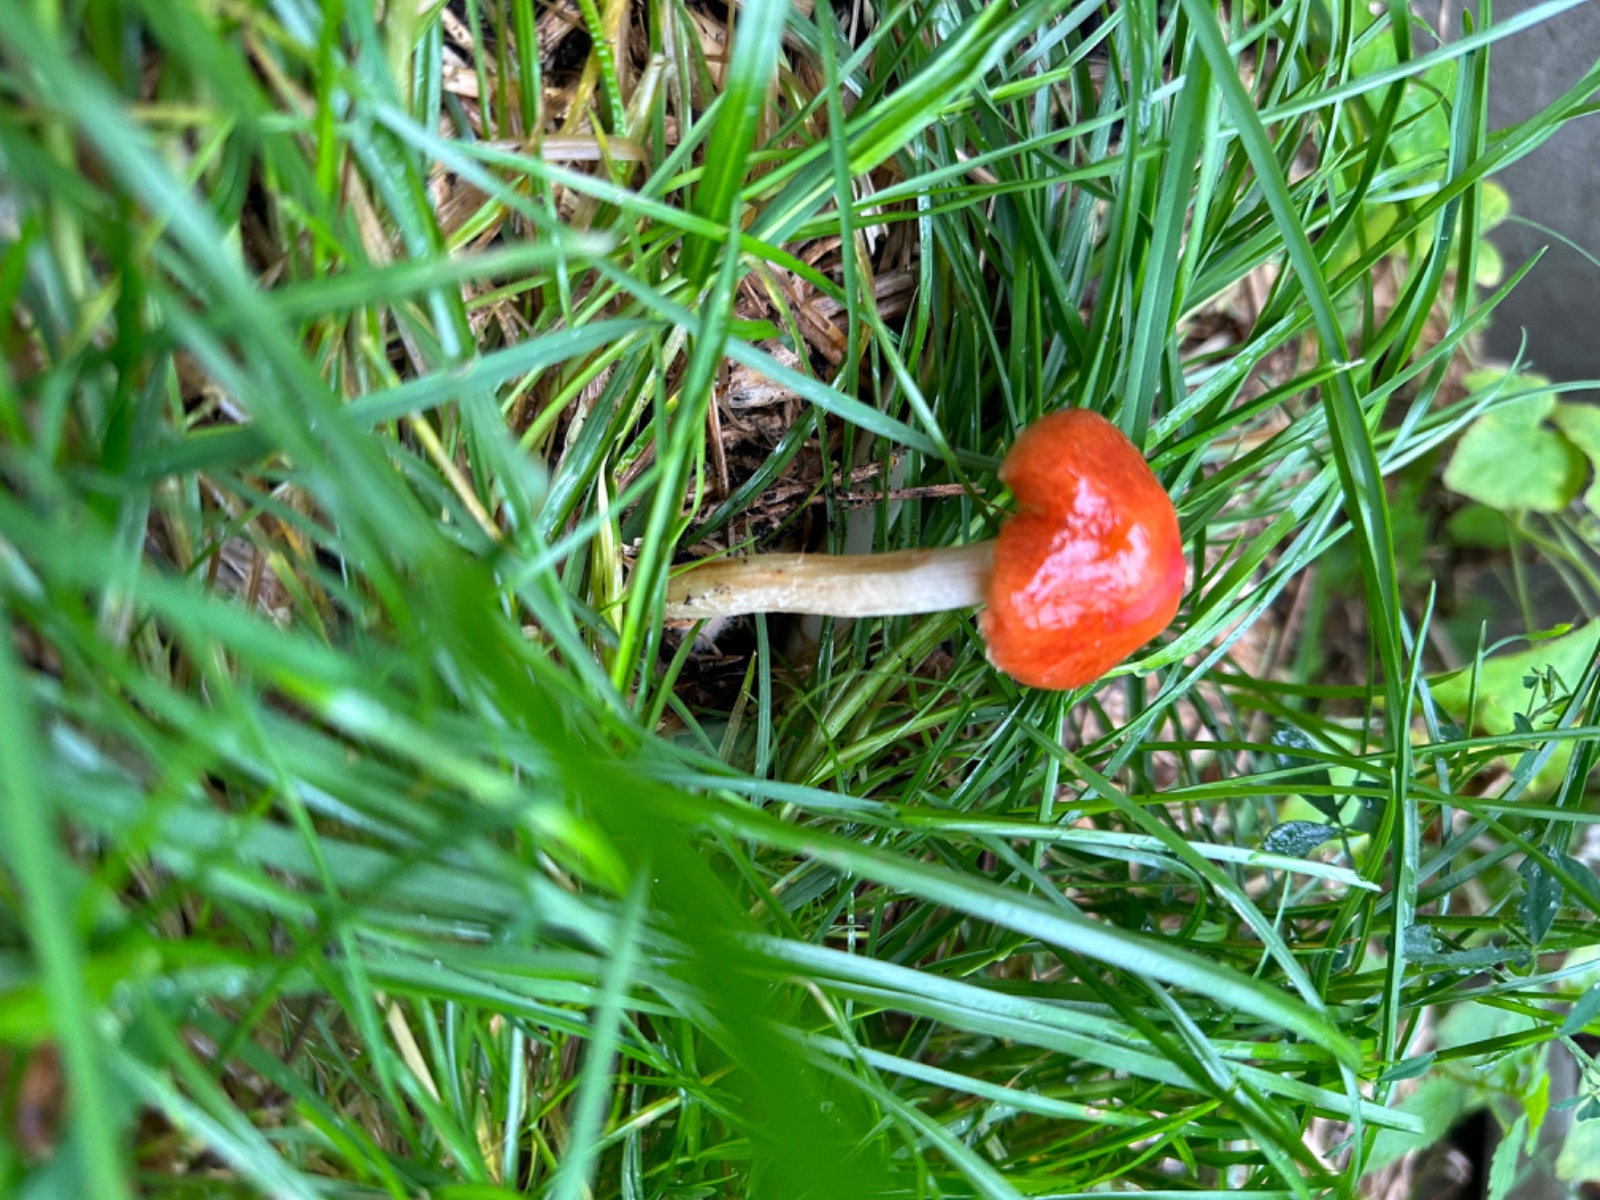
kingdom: Fungi
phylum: Basidiomycota
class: Agaricomycetes
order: Agaricales
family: Strophariaceae
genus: Leratiomyces
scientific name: Leratiomyces ceres
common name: orange bredblad
